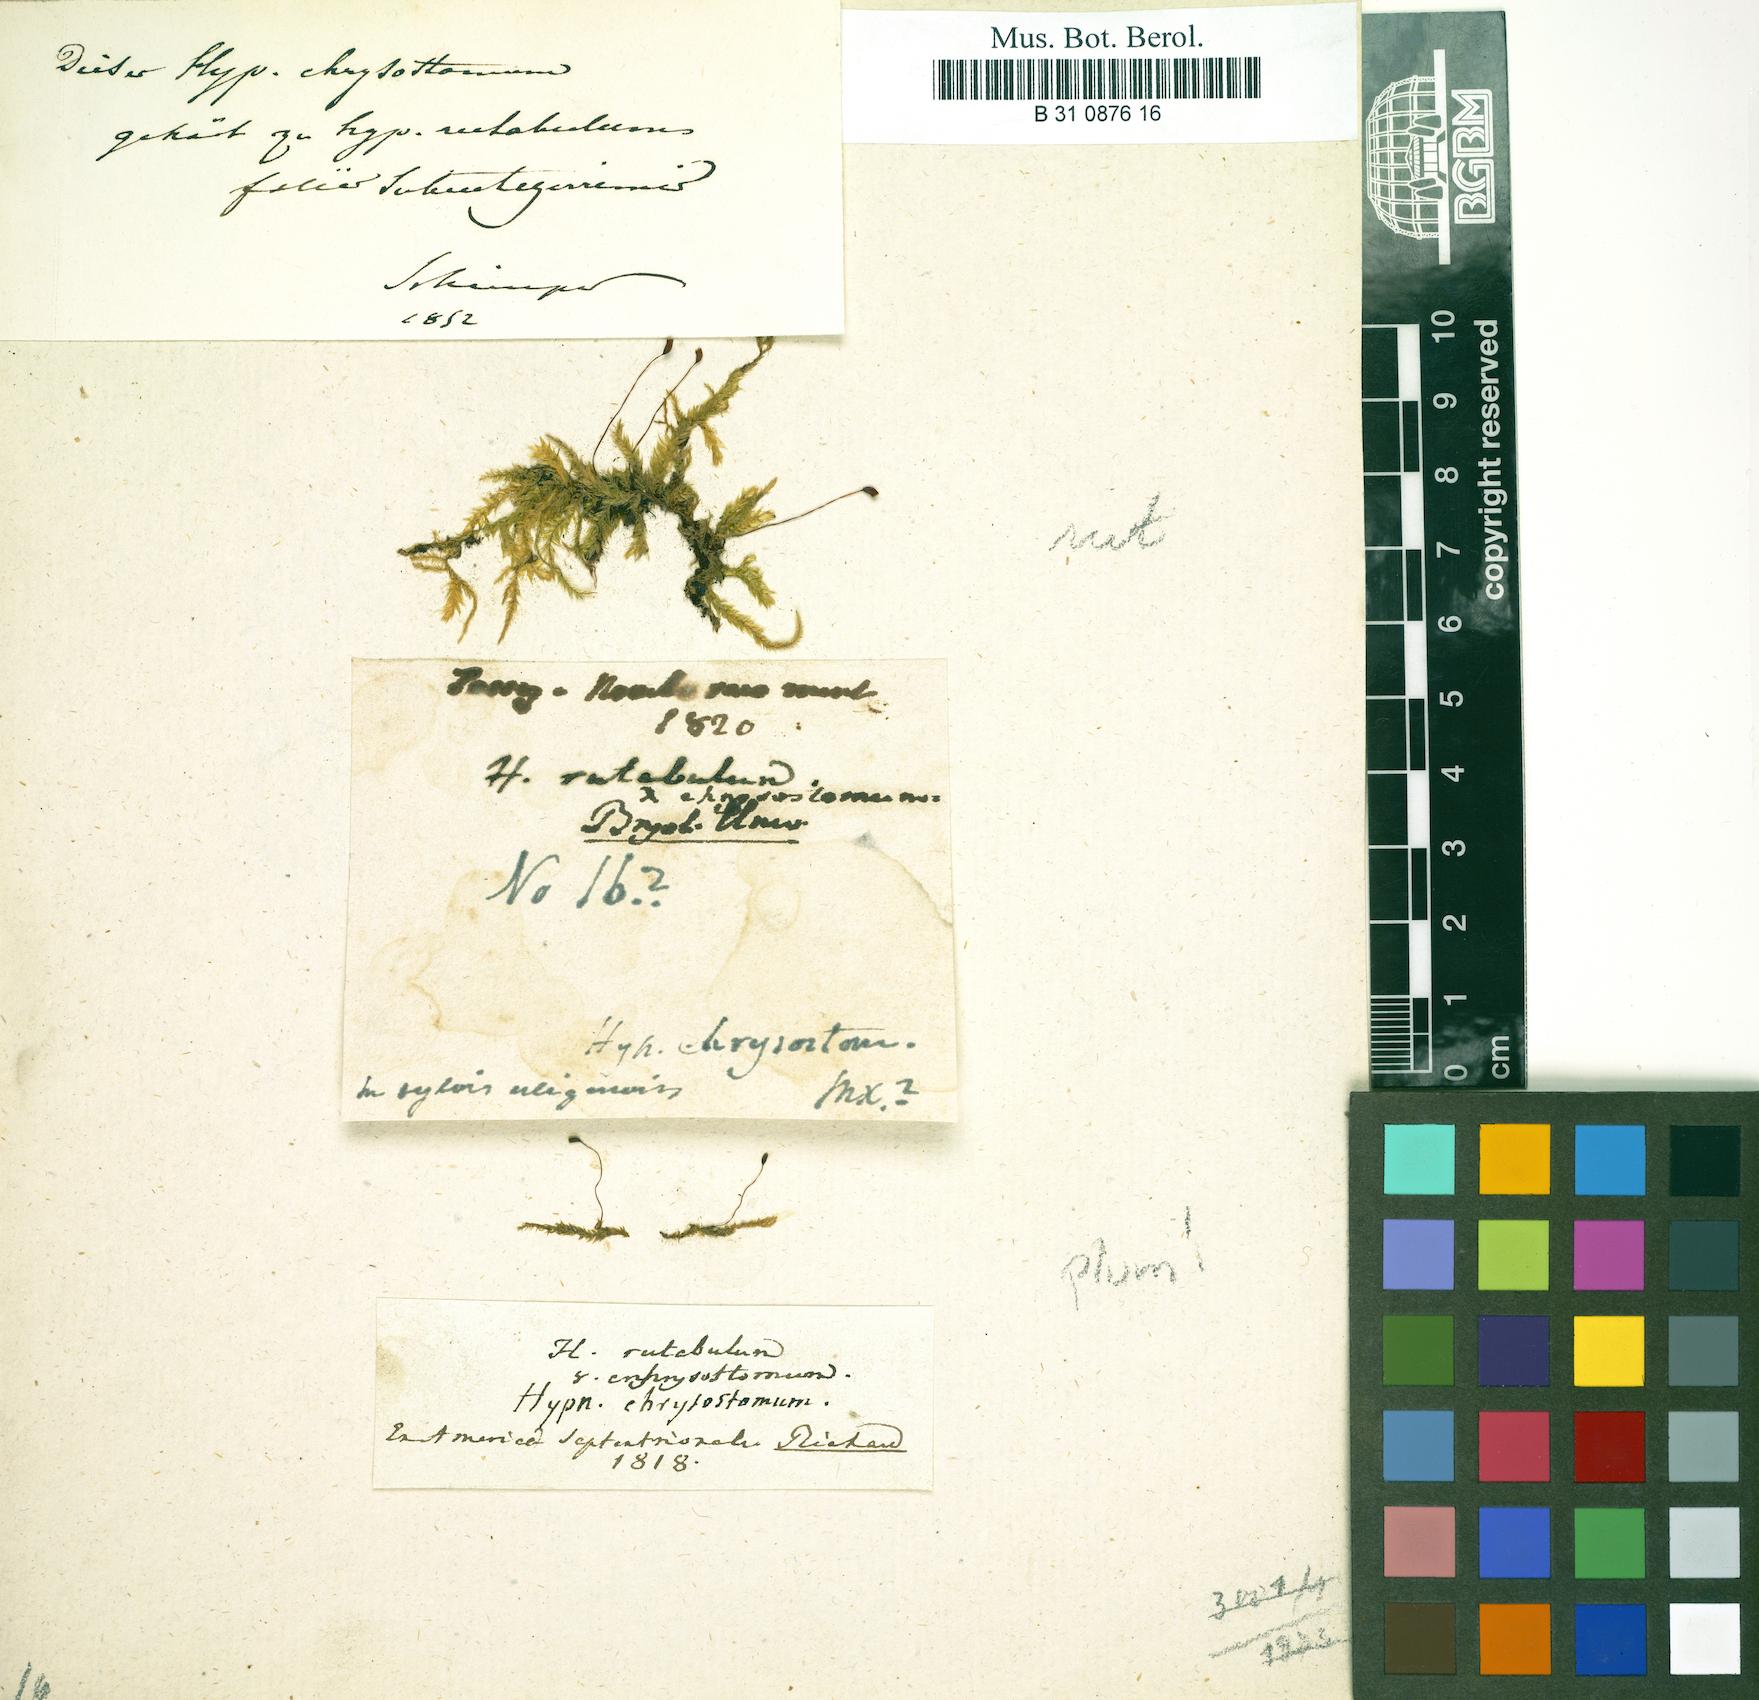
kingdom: Plantae
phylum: Bryophyta
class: Bryopsida
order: Hypnales
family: Brachytheciaceae
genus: Brachythecium
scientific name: Brachythecium rutabulum
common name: Rough-stalked feather-moss
